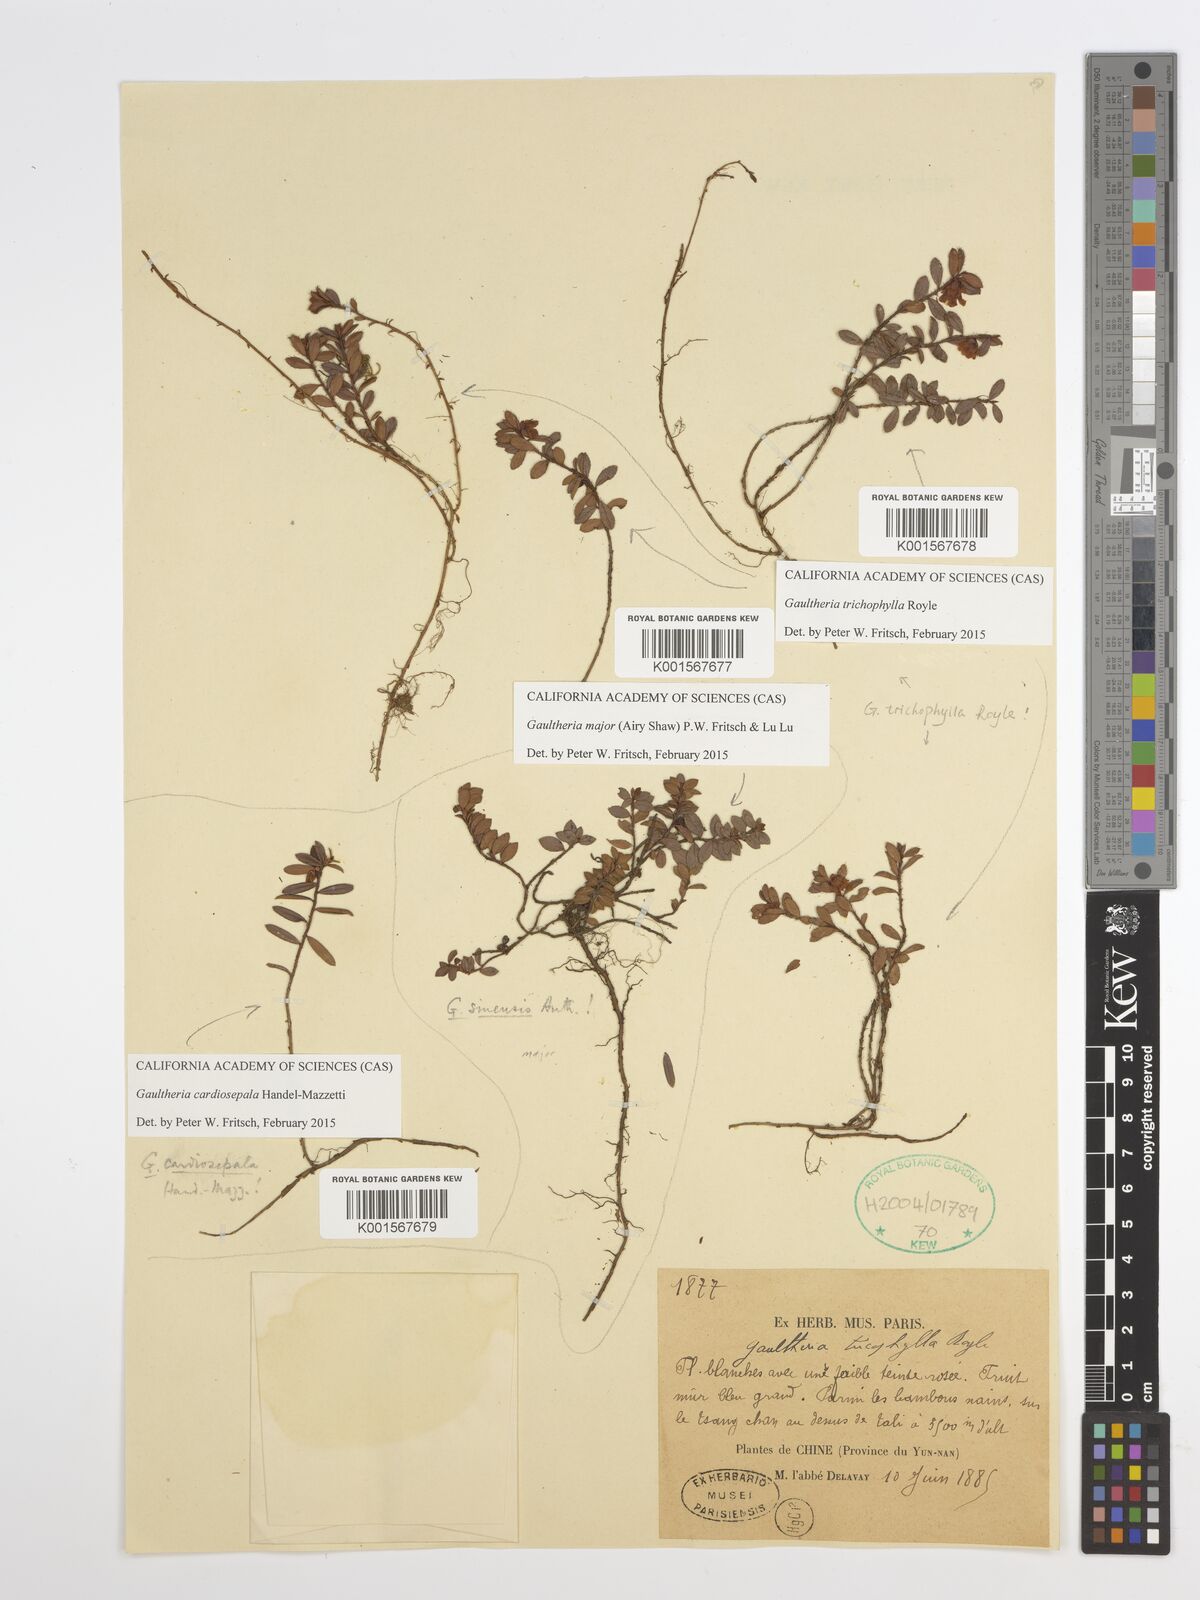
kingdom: Plantae
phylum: Tracheophyta
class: Magnoliopsida
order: Ericales
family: Ericaceae
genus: Gaultheria
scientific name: Gaultheria major
